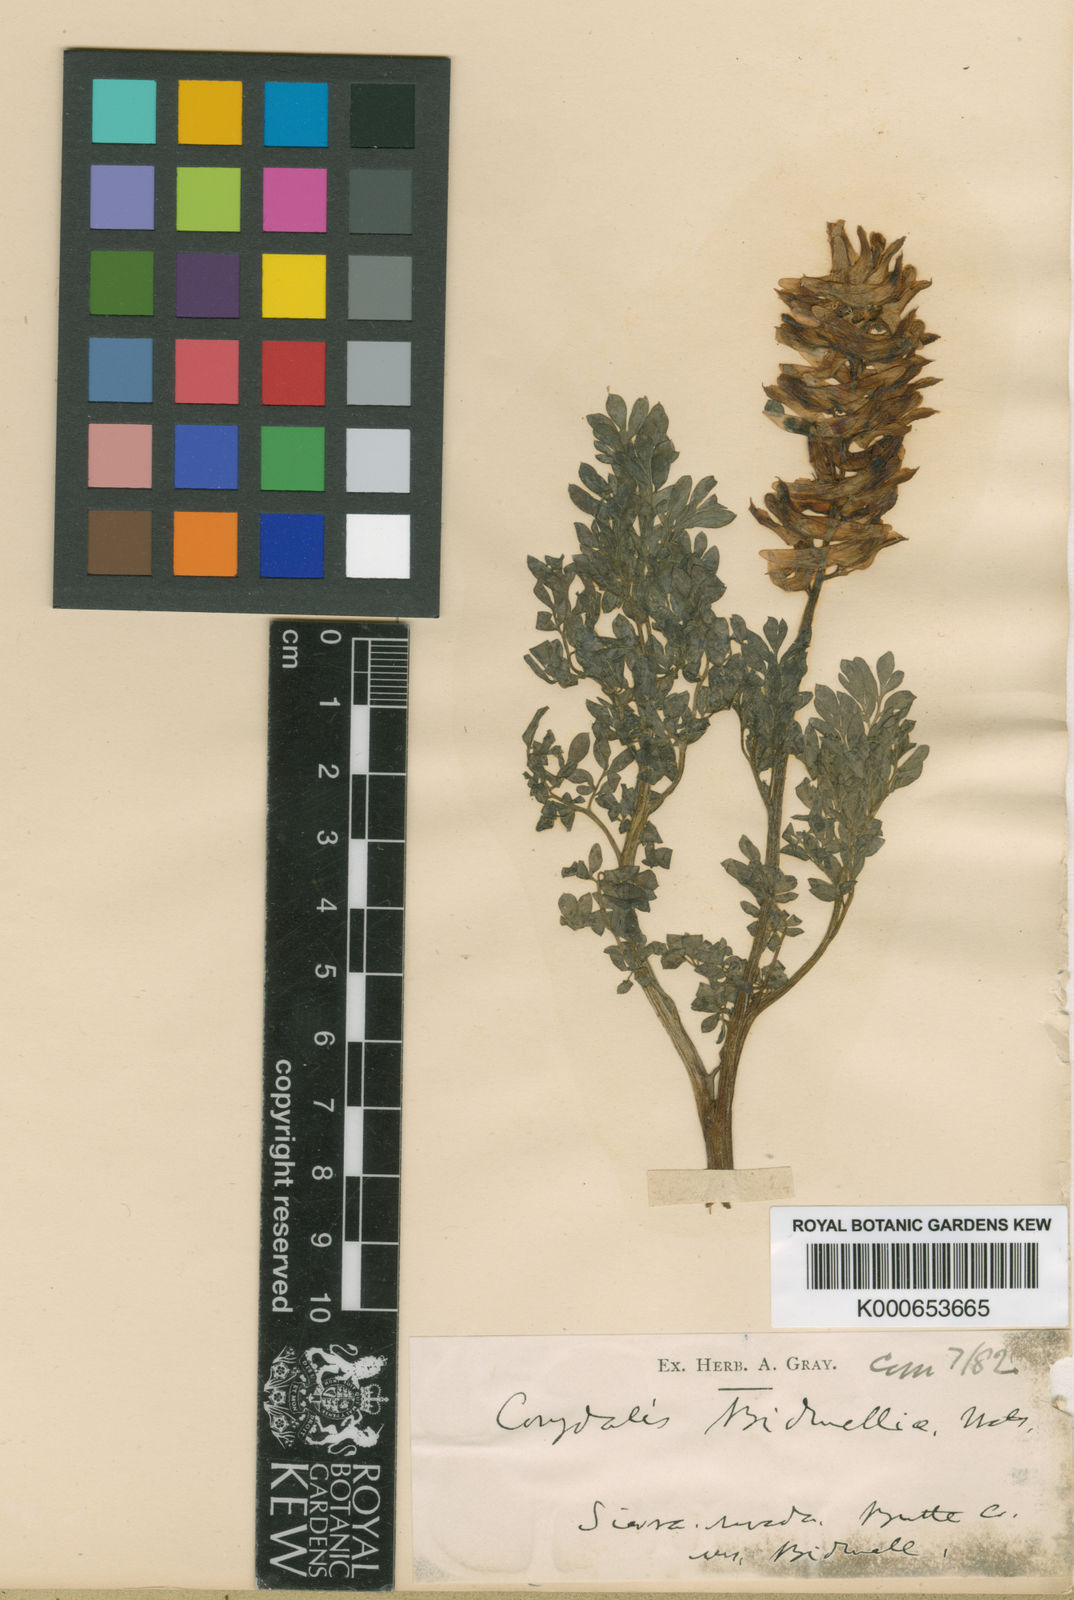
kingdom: Plantae
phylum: Tracheophyta
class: Magnoliopsida
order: Ranunculales
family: Papaveraceae
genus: Corydalis
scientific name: Corydalis caseana
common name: Fitweed
